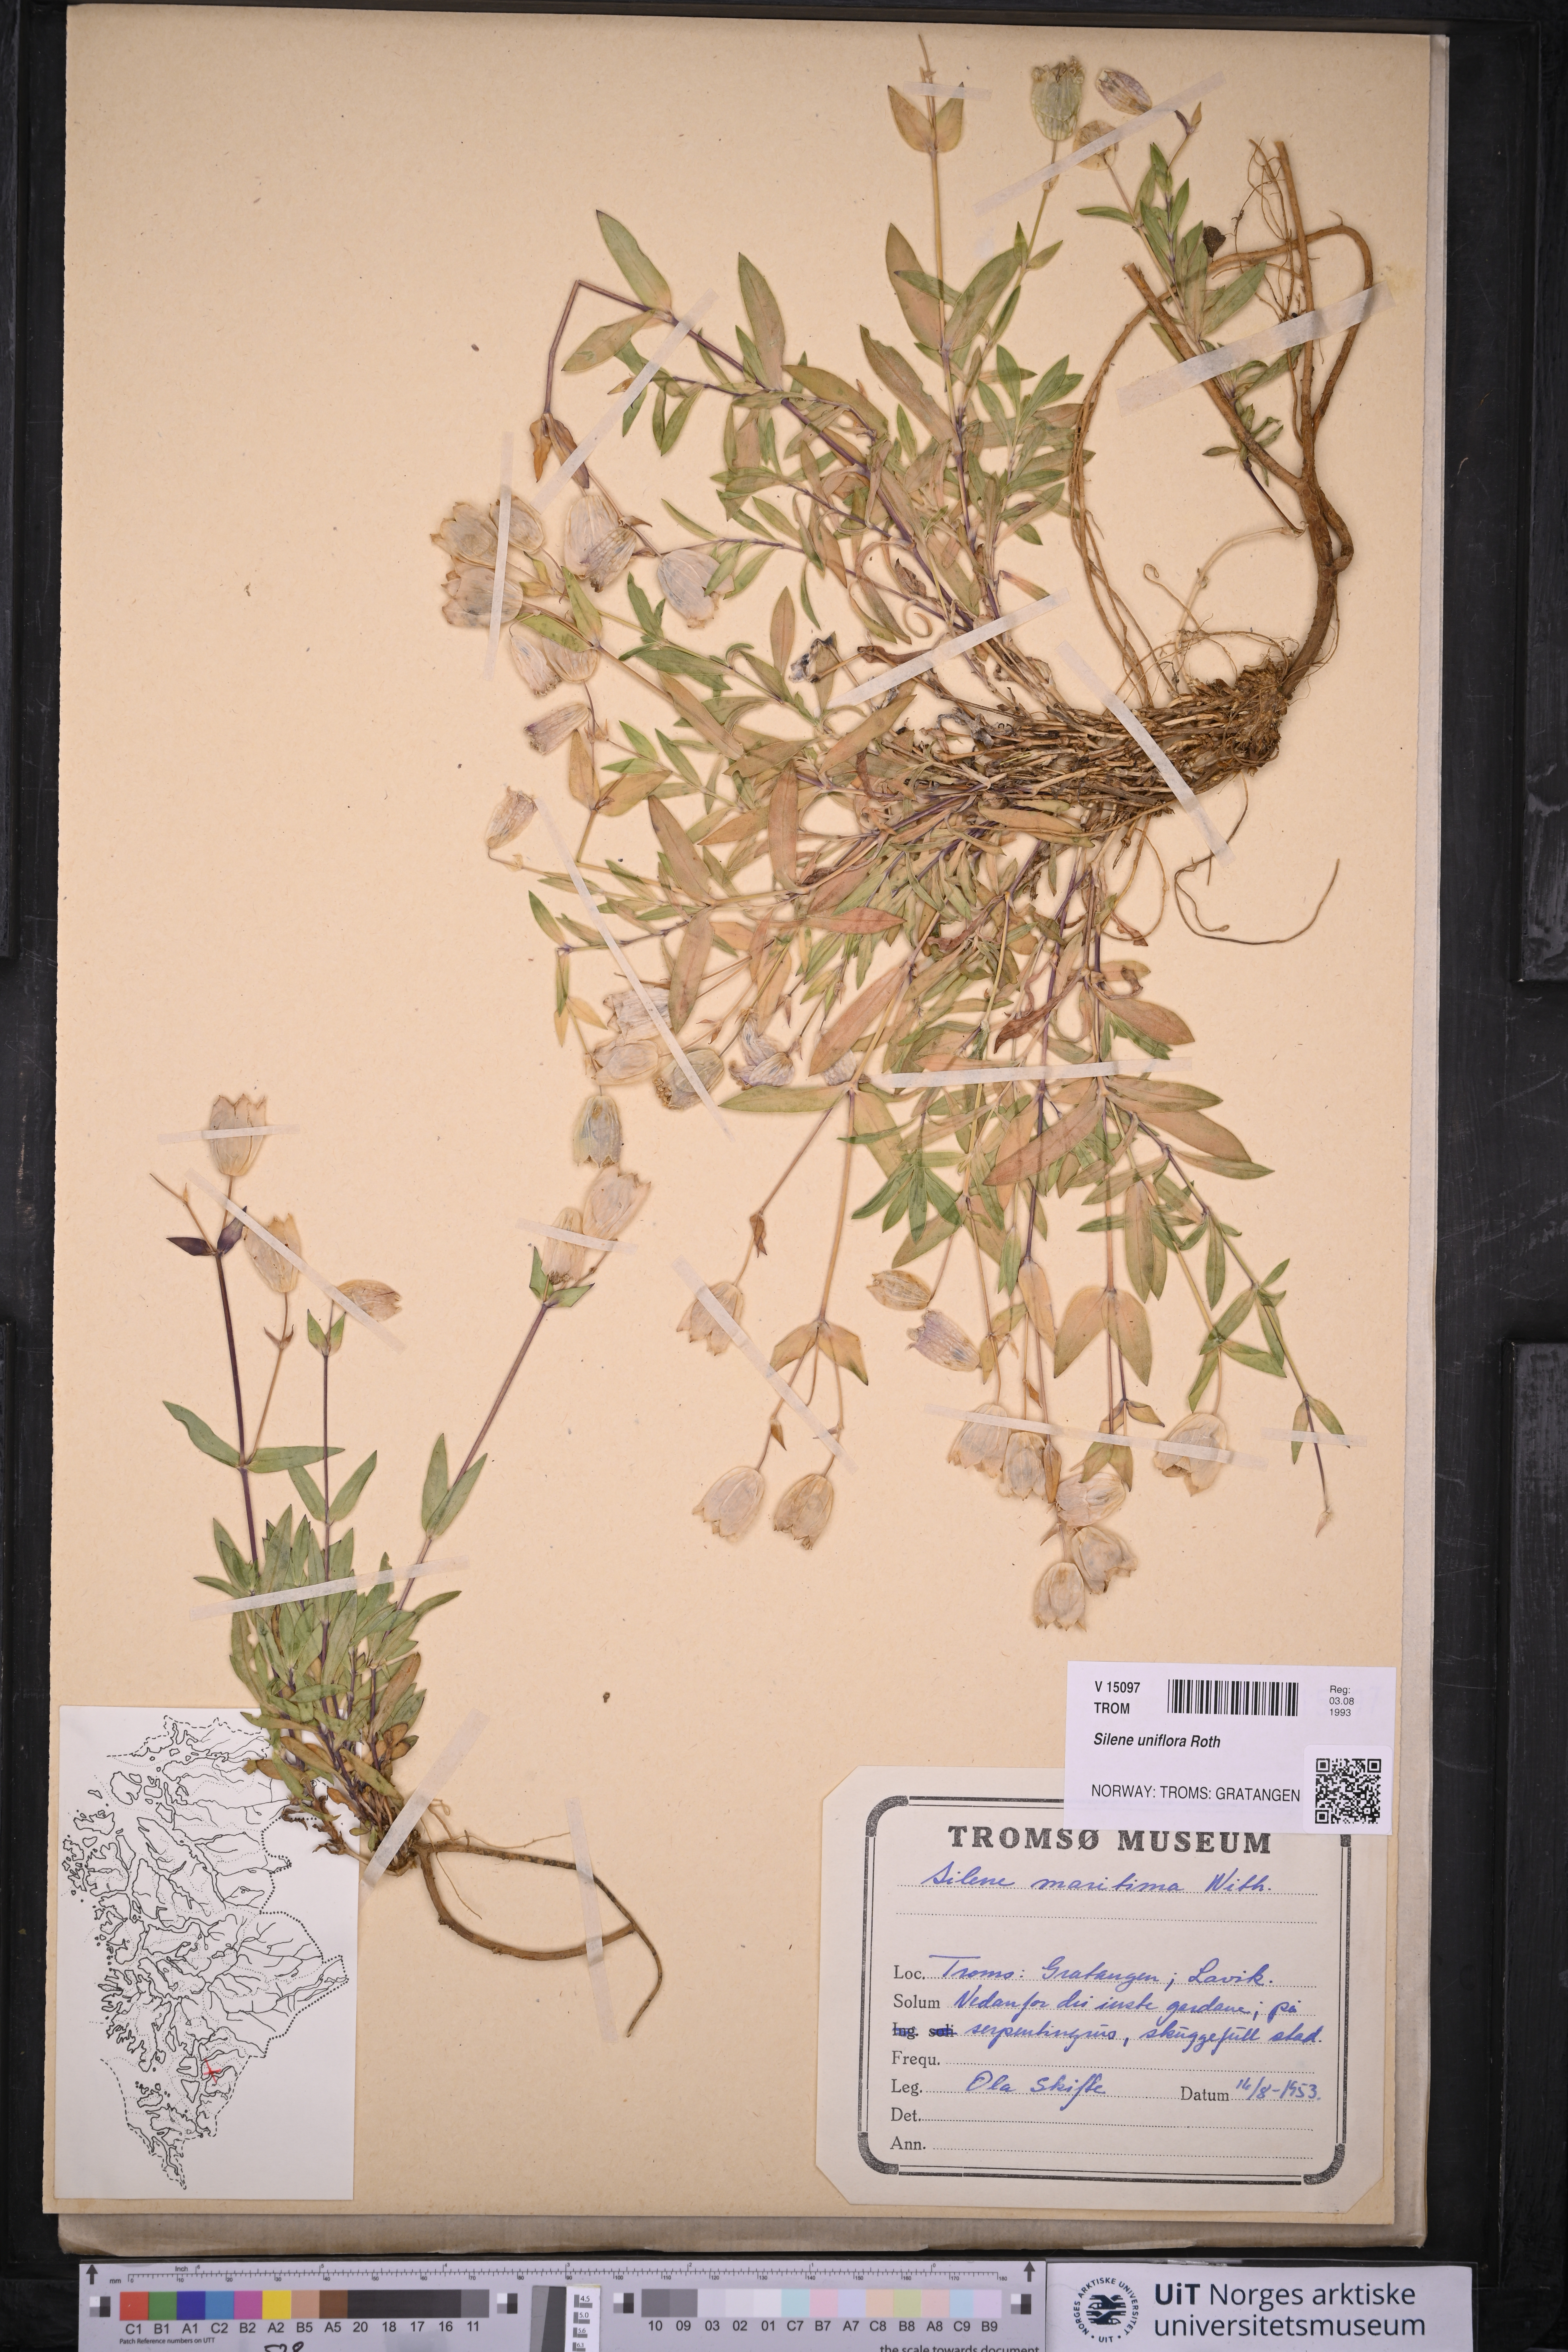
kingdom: Plantae
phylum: Tracheophyta
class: Magnoliopsida
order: Caryophyllales
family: Caryophyllaceae
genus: Silene
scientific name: Silene uniflora
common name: Sea campion
